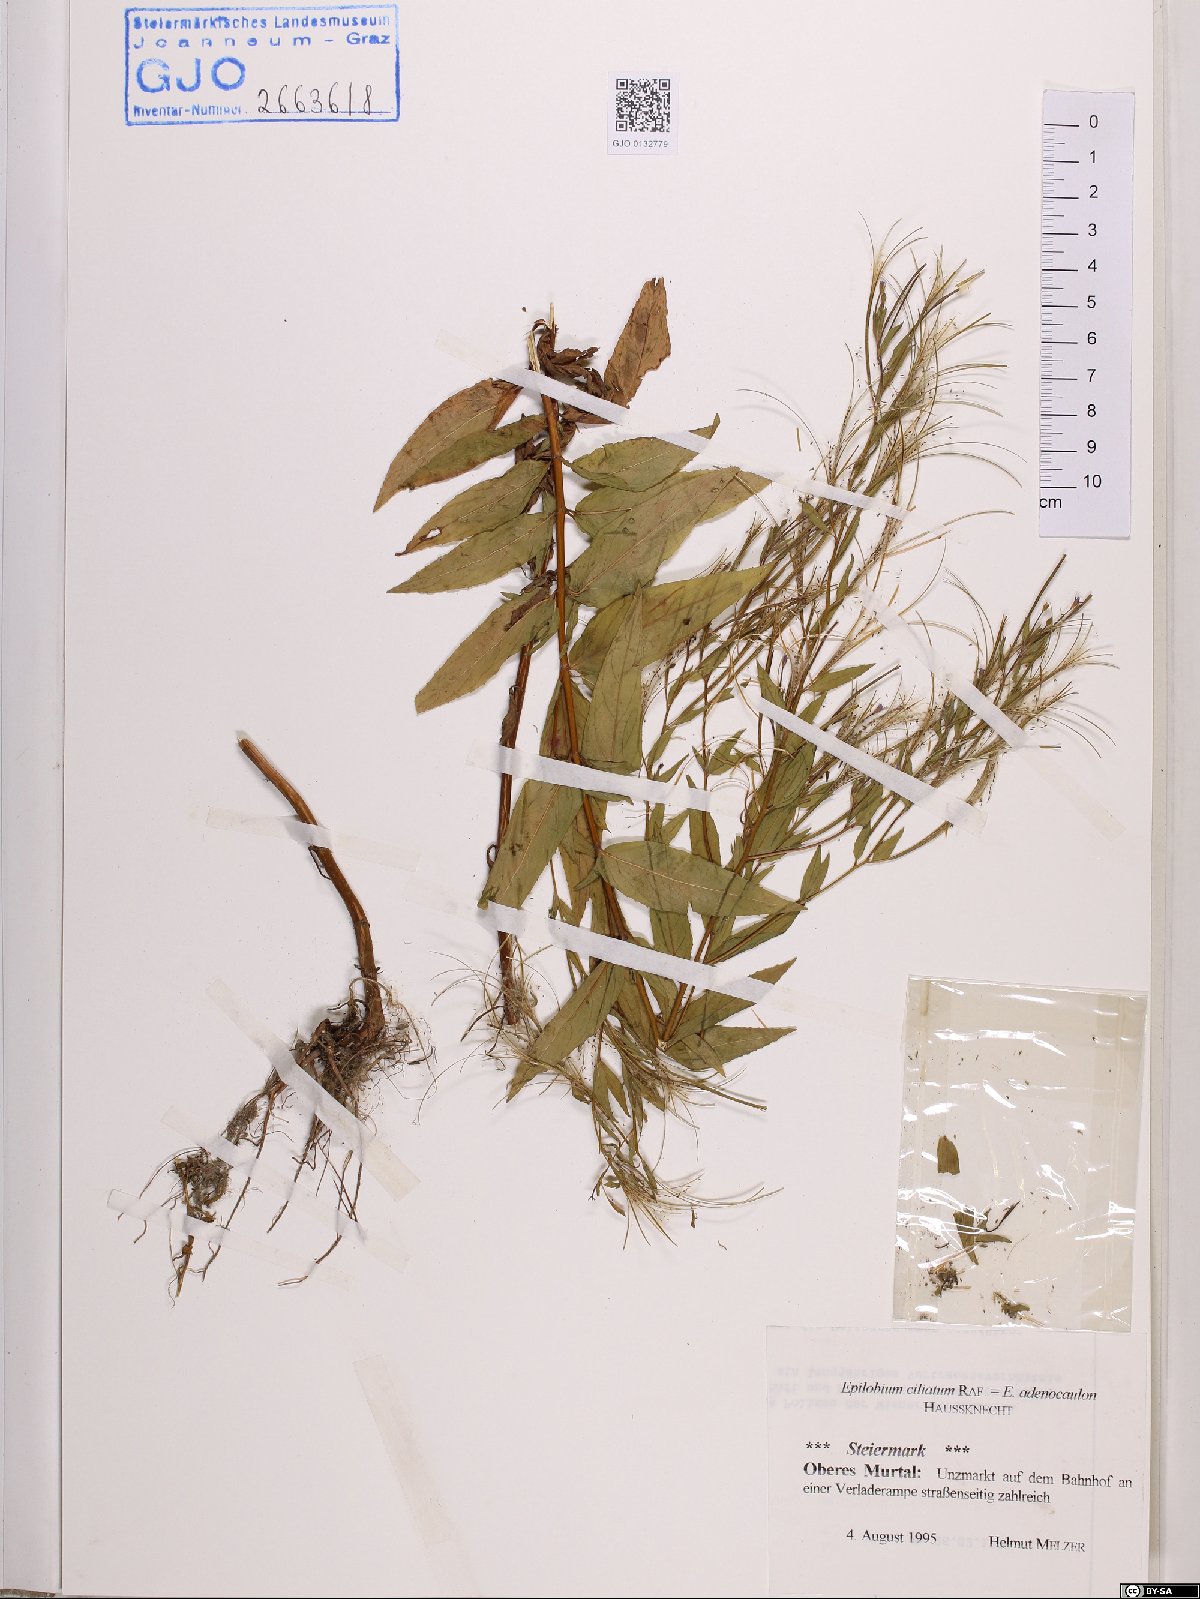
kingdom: Plantae
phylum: Tracheophyta
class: Magnoliopsida
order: Myrtales
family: Onagraceae
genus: Epilobium
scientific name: Epilobium ciliatum
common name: American willowherb
